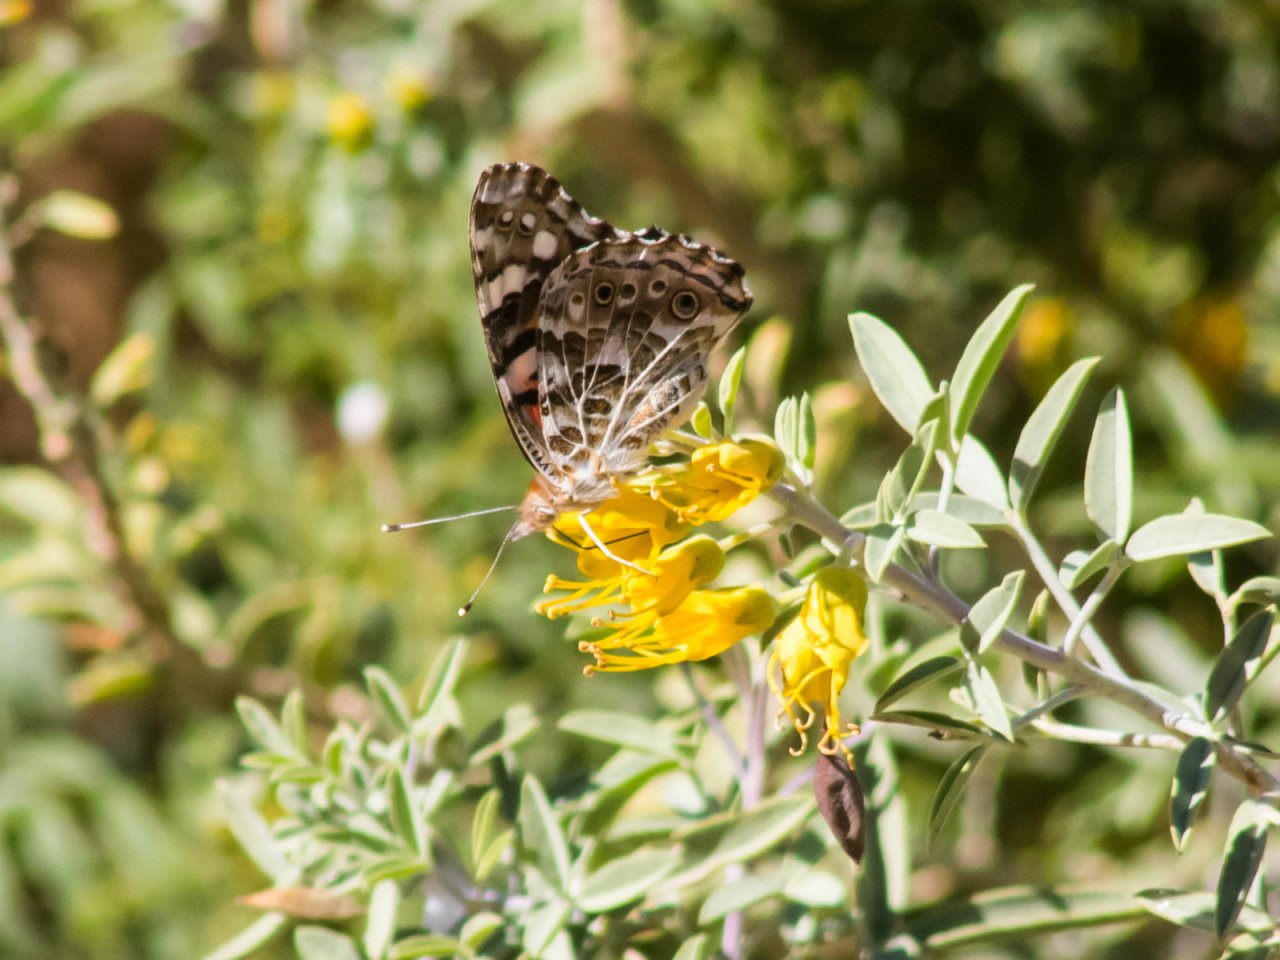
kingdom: Animalia
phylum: Arthropoda
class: Insecta
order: Lepidoptera
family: Nymphalidae
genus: Vanessa
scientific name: Vanessa cardui
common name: Painted Lady
